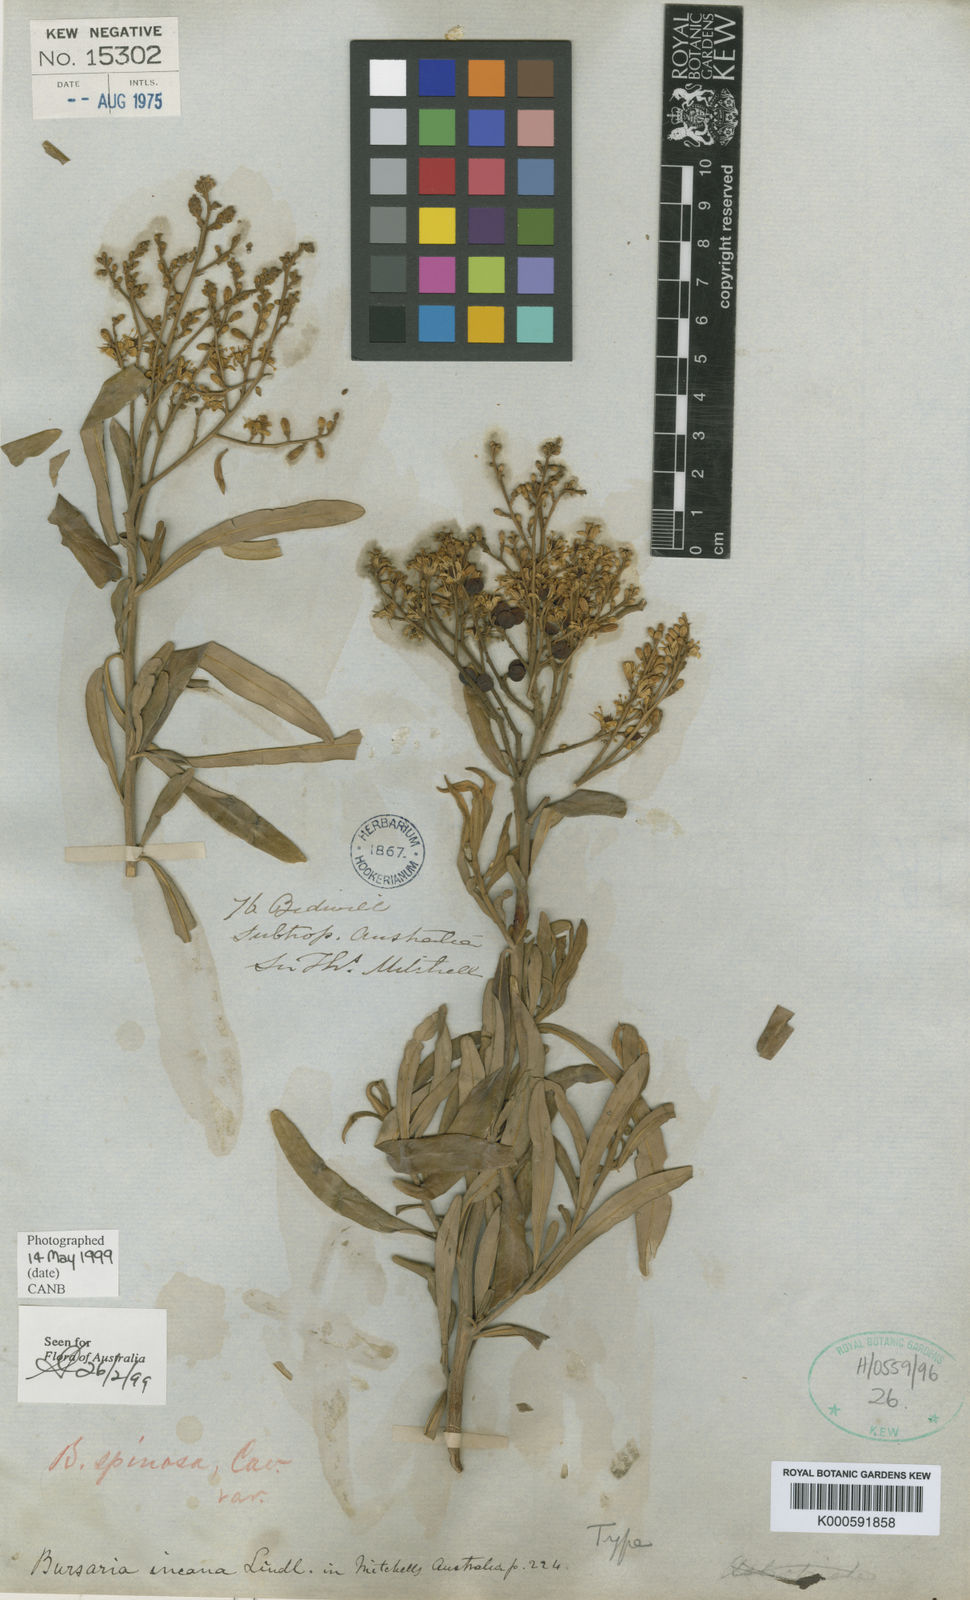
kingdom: Plantae
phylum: Tracheophyta
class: Magnoliopsida
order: Apiales
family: Pittosporaceae
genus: Bursaria
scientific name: Bursaria incana
